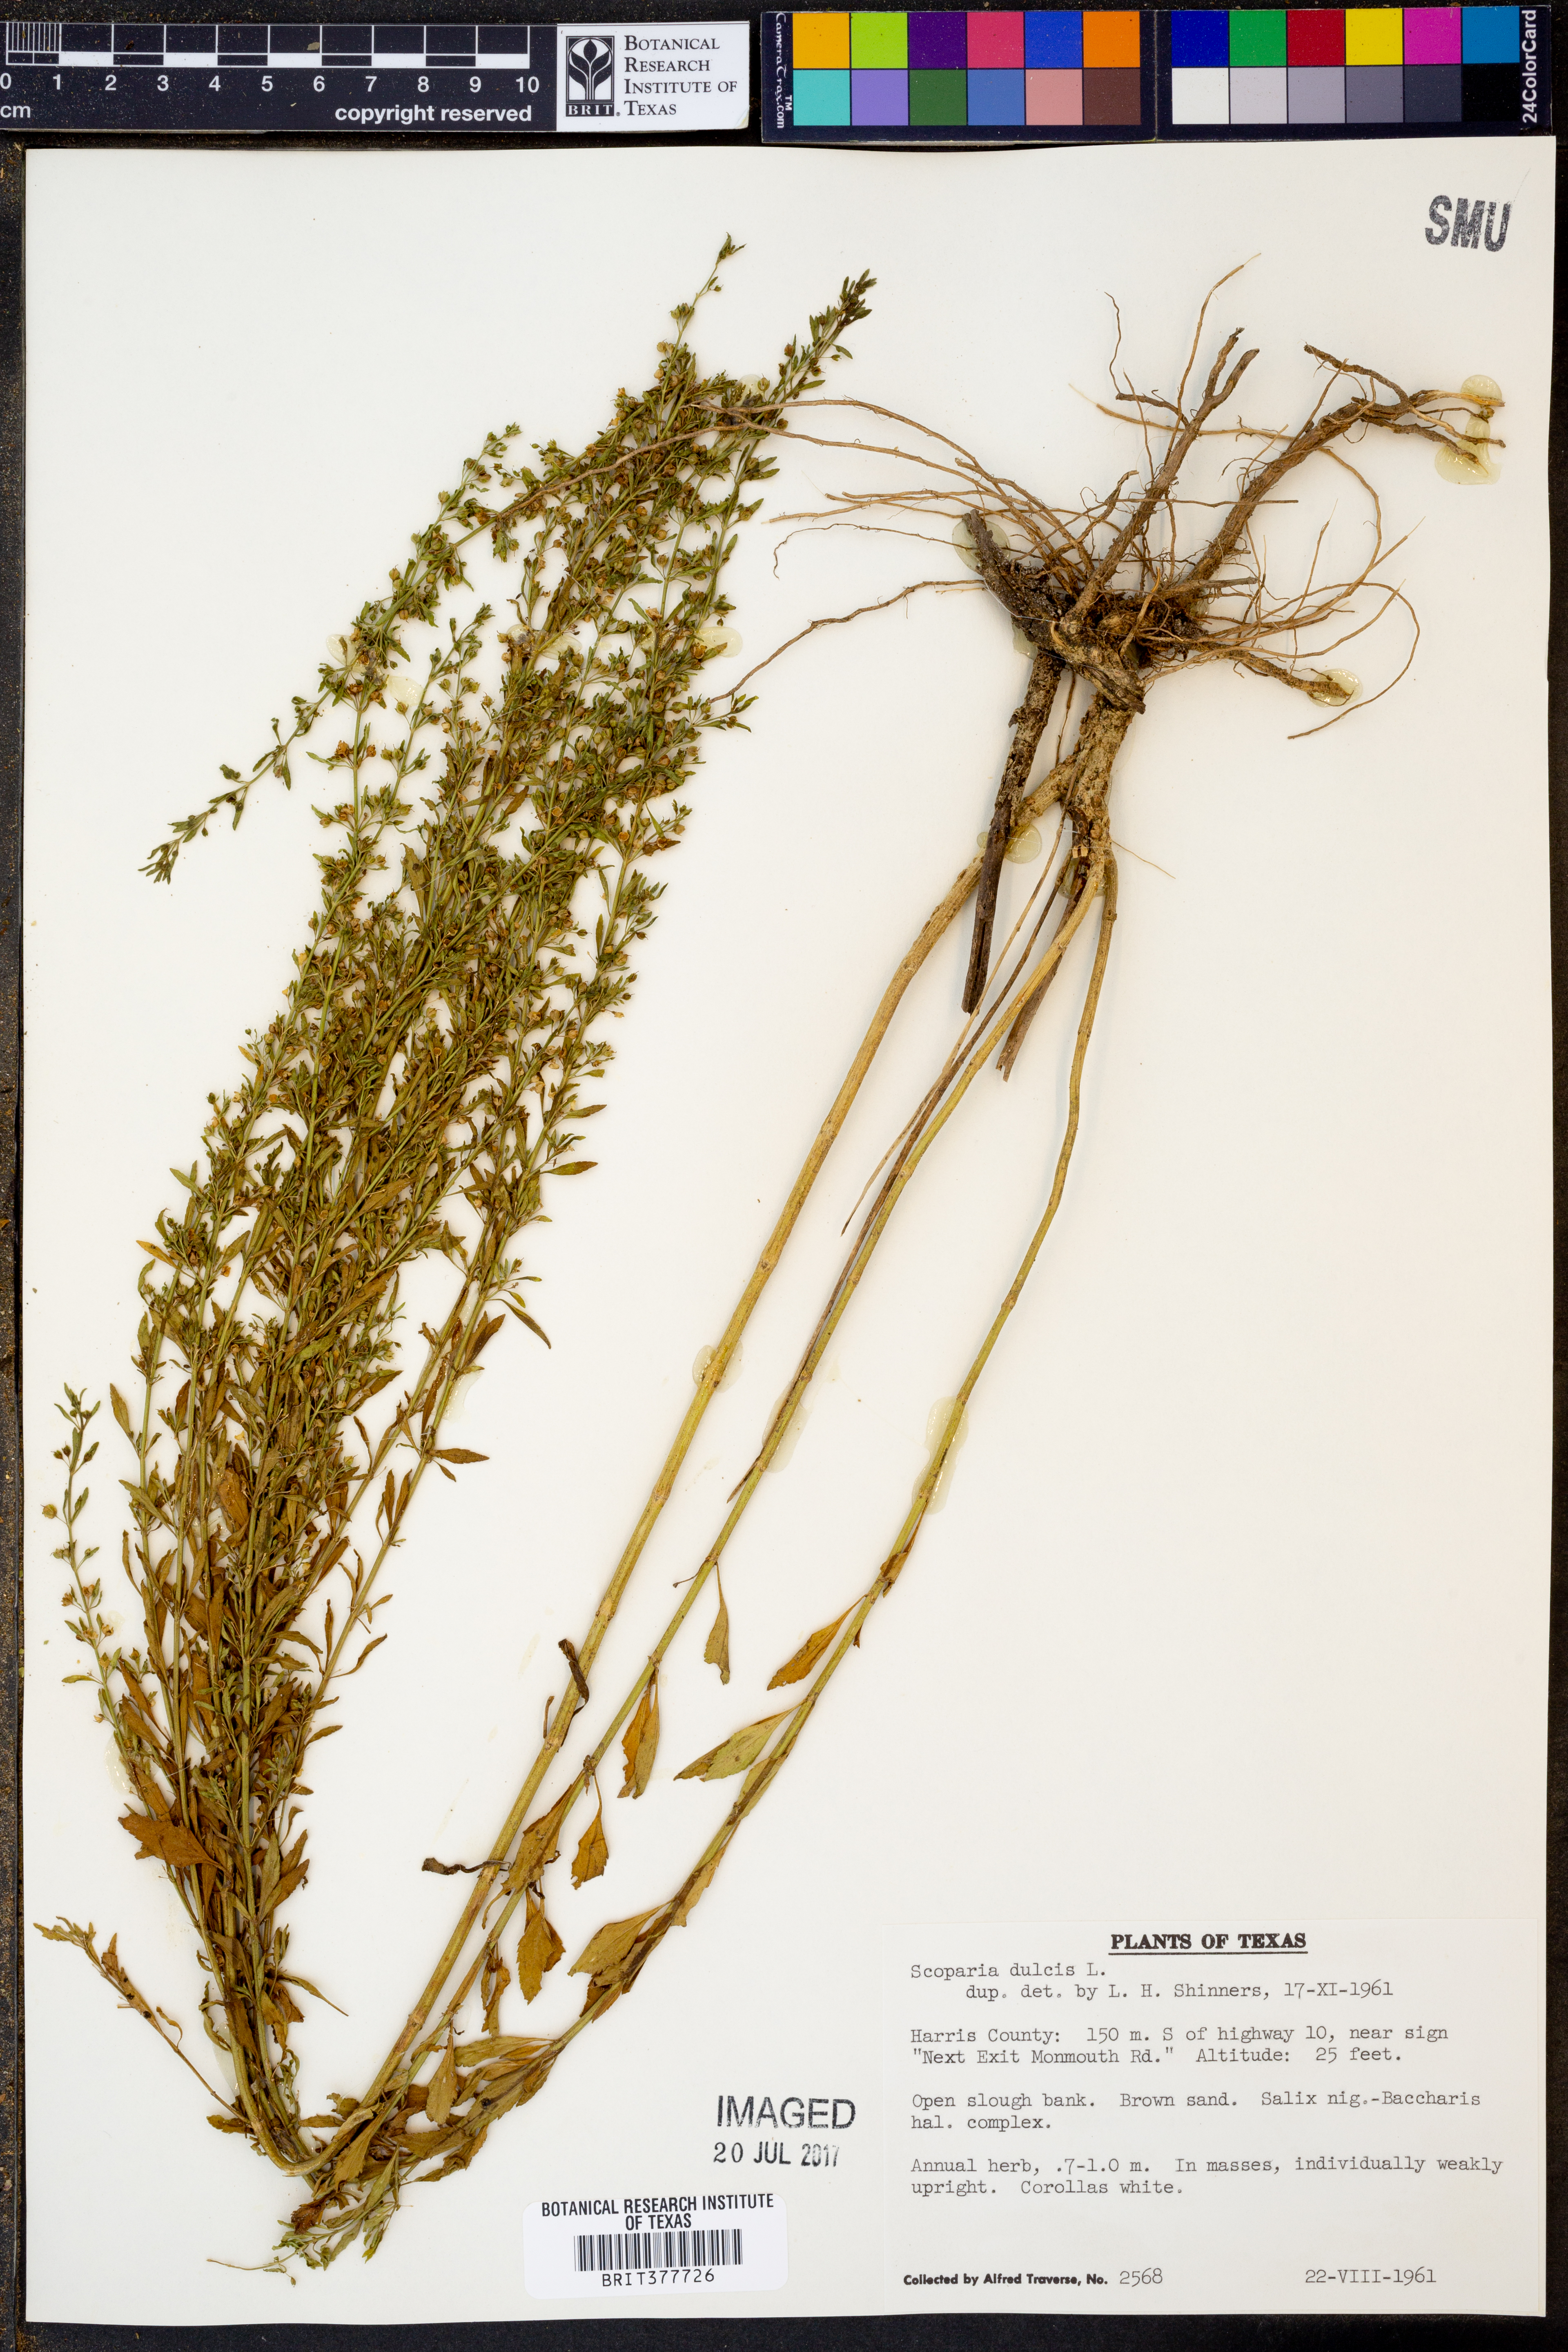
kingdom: Plantae
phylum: Tracheophyta
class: Magnoliopsida
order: Lamiales
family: Plantaginaceae
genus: Scoparia
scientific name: Scoparia dulcis
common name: Scoparia-weed
